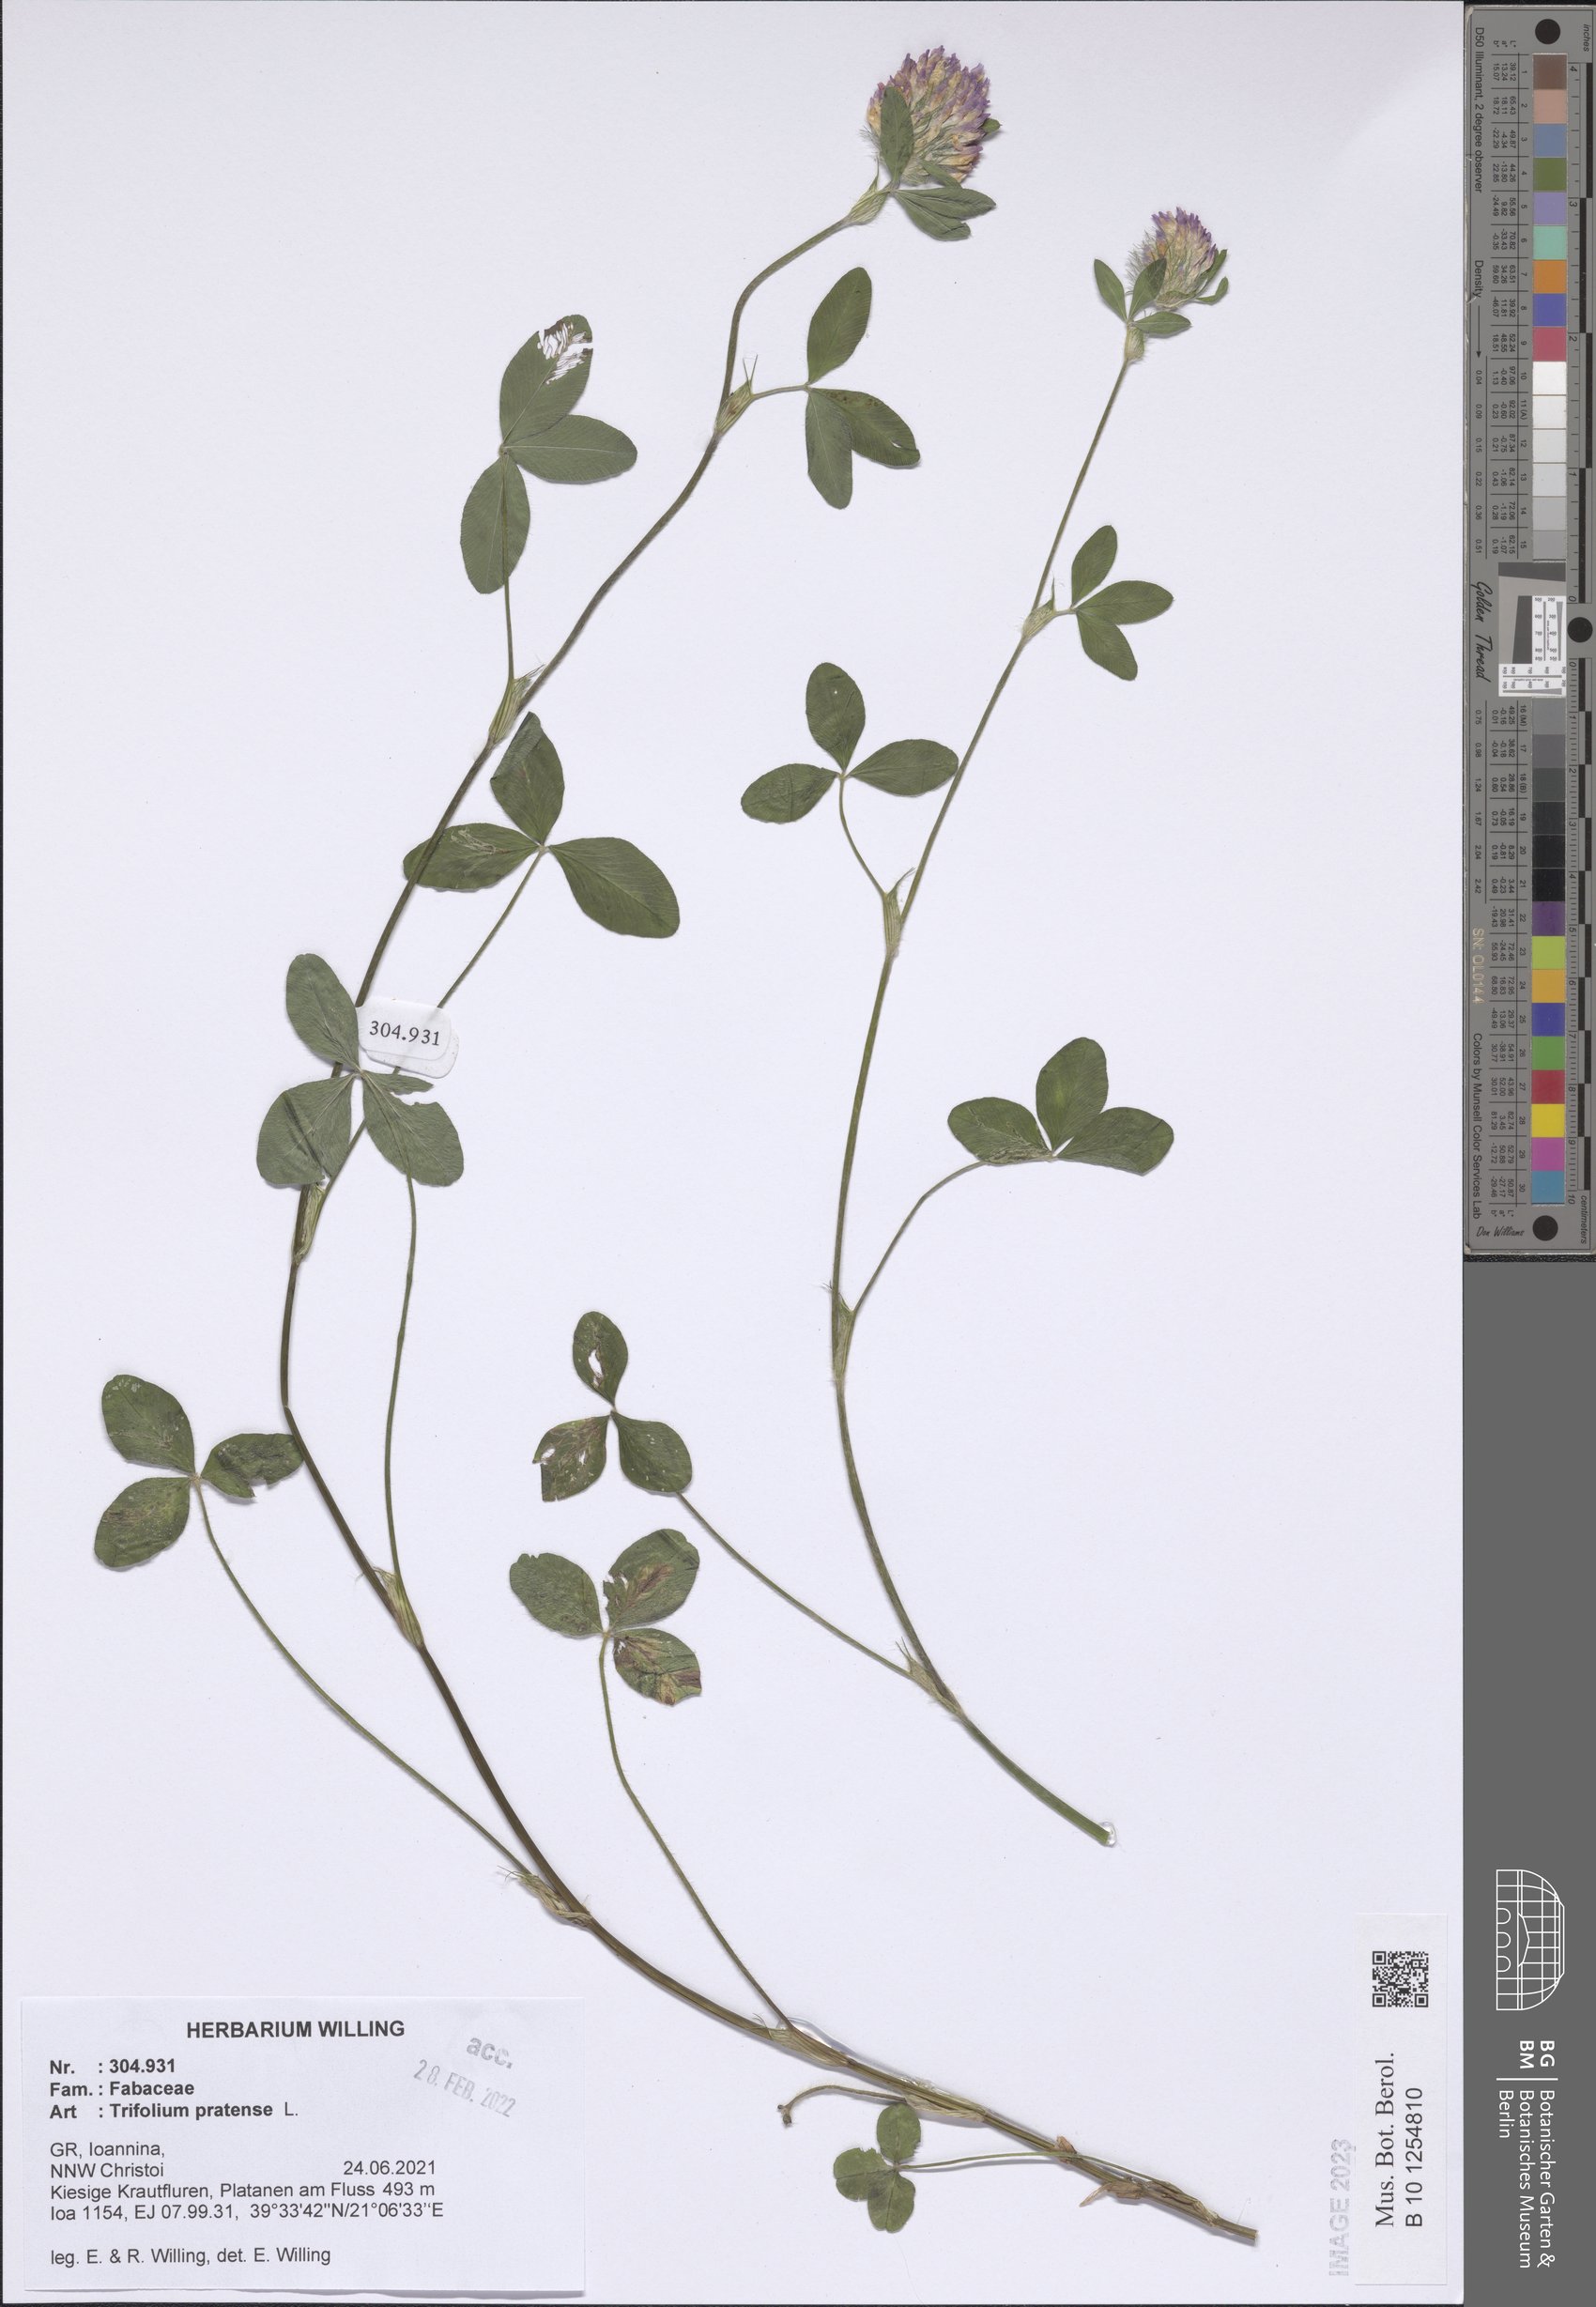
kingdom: Plantae
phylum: Tracheophyta
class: Magnoliopsida
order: Fabales
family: Fabaceae
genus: Trifolium
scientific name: Trifolium pratense
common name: Red clover
